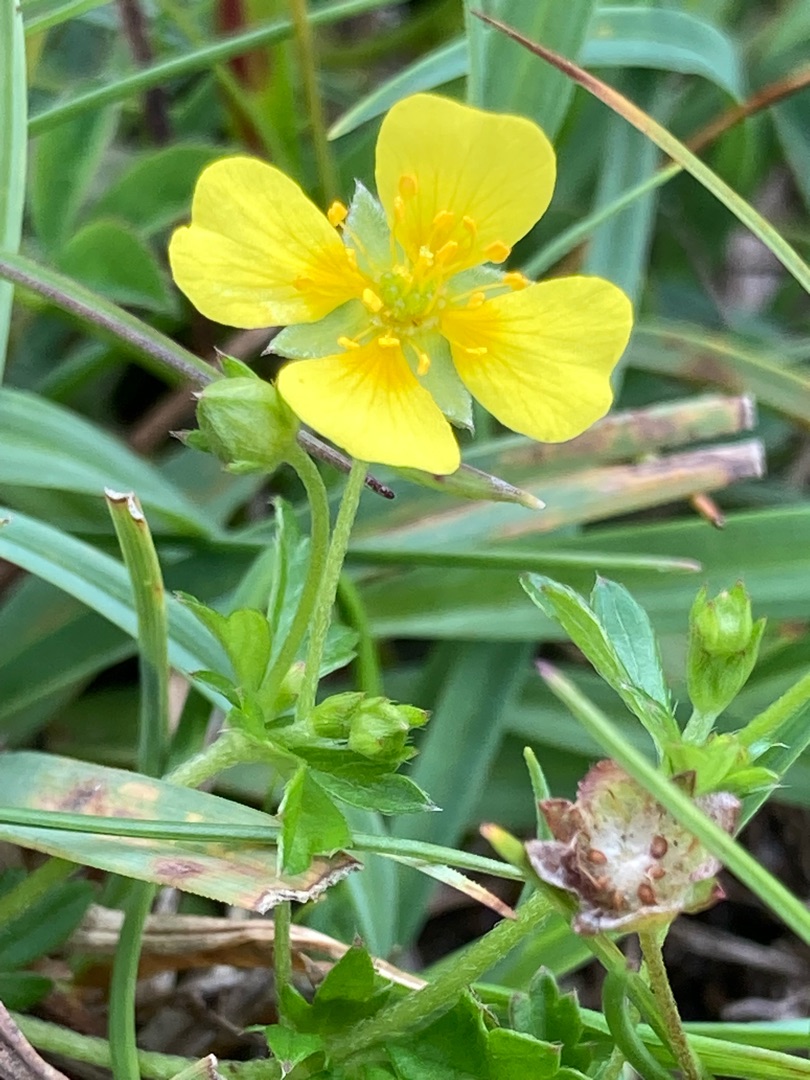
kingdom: Plantae
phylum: Tracheophyta
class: Magnoliopsida
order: Rosales
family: Rosaceae
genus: Potentilla
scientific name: Potentilla erecta
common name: Tormentil
